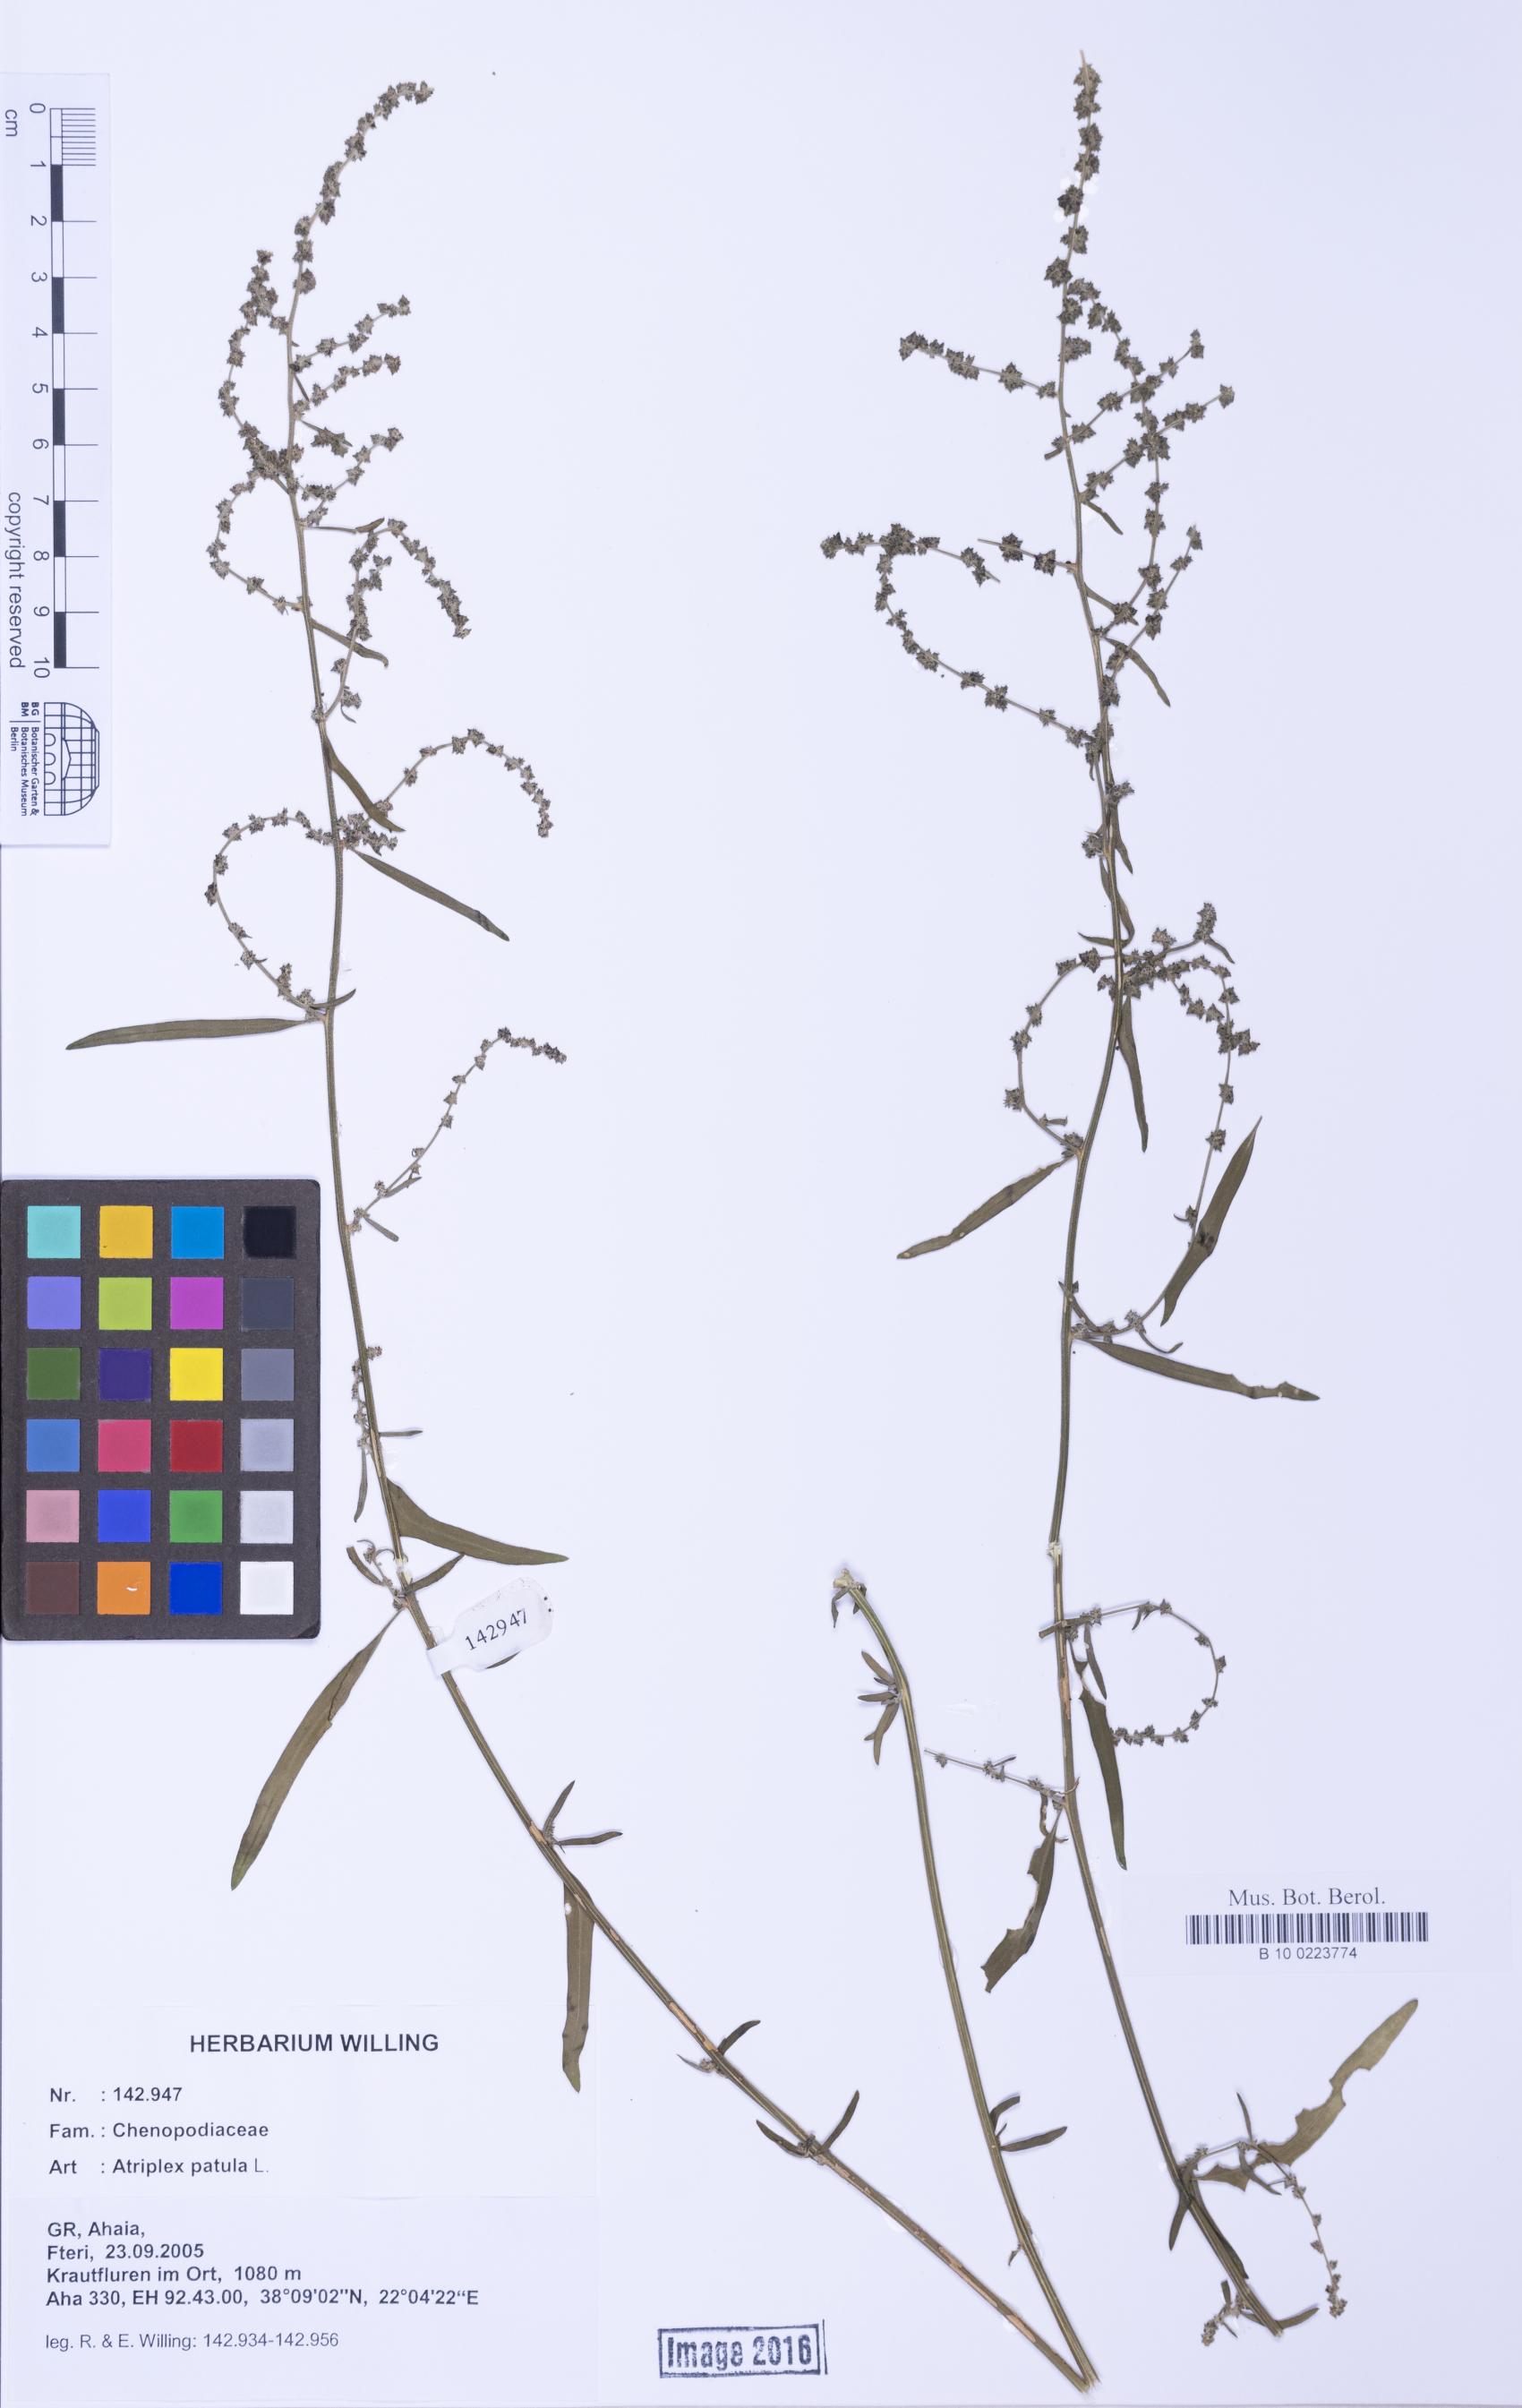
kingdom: Plantae
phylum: Tracheophyta
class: Magnoliopsida
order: Caryophyllales
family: Amaranthaceae
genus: Atriplex
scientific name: Atriplex patula
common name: Common orache
